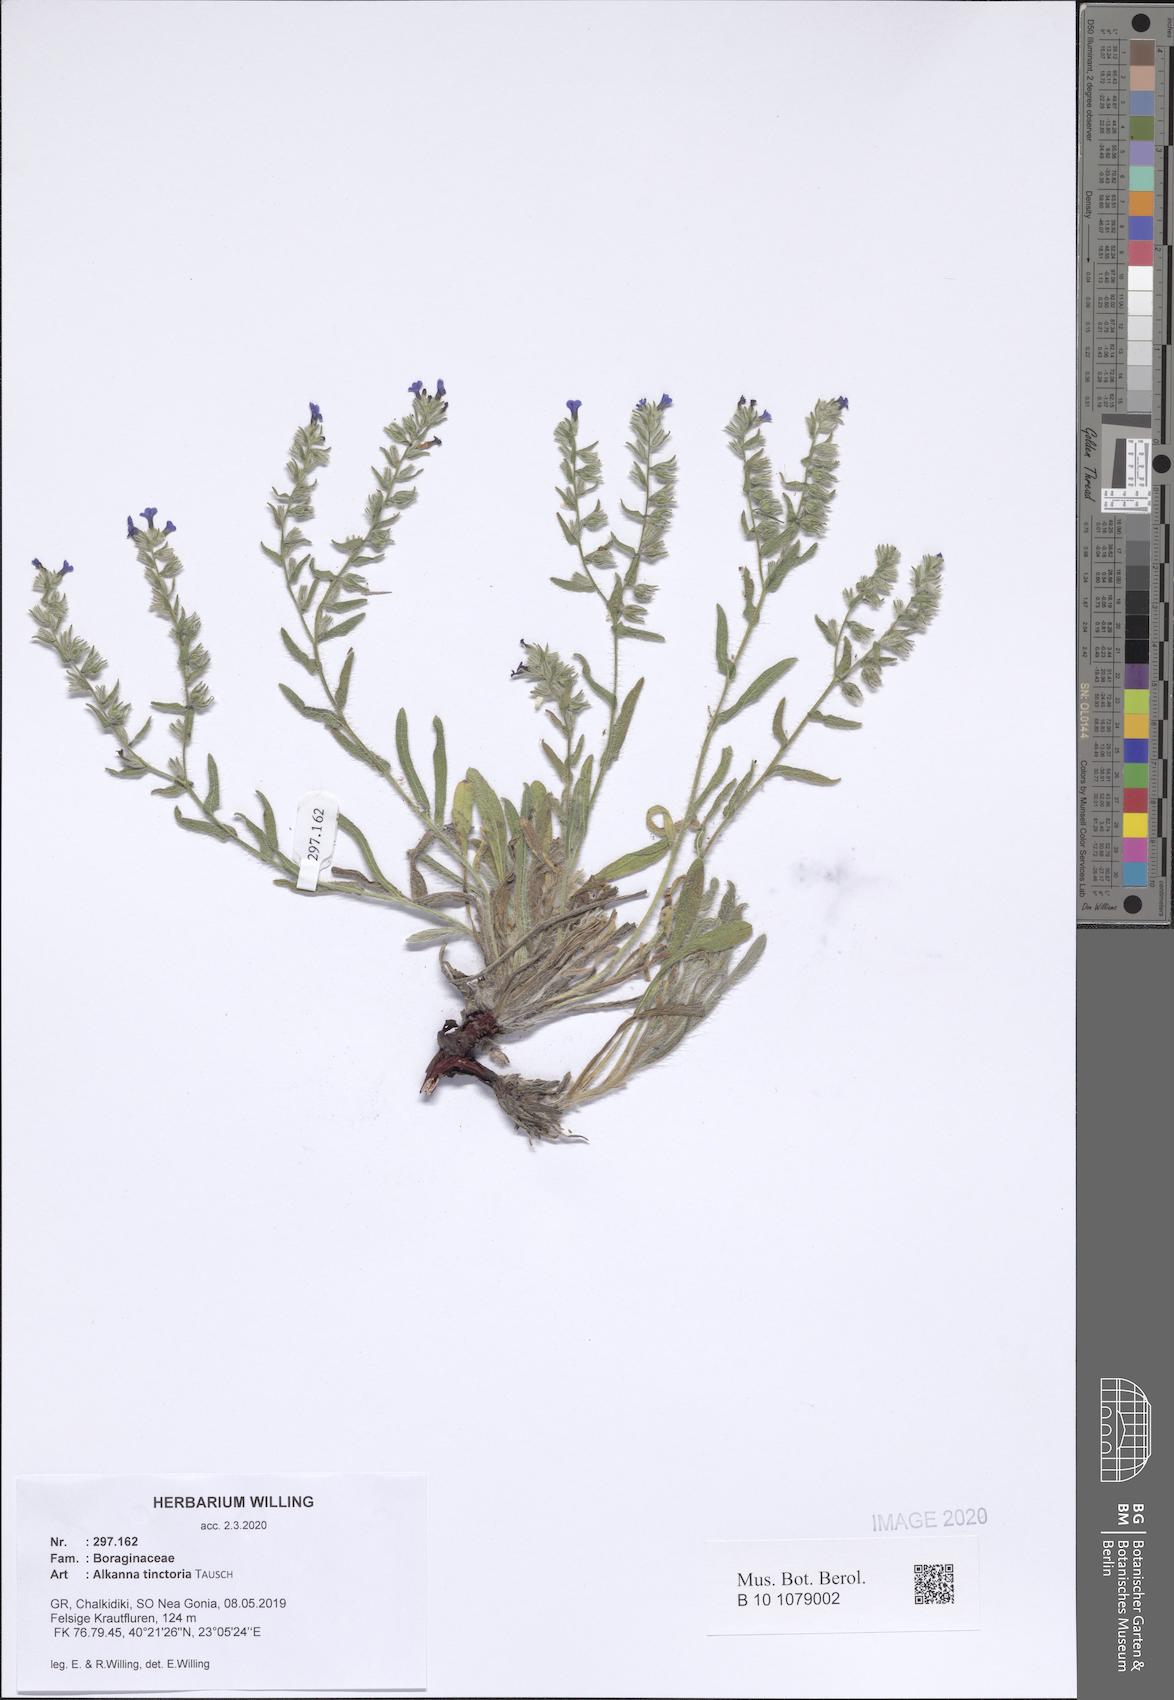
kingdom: Plantae
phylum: Tracheophyta
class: Magnoliopsida
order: Boraginales
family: Boraginaceae
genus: Alkanna
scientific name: Alkanna tinctoria
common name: Dyer's-alkanet
